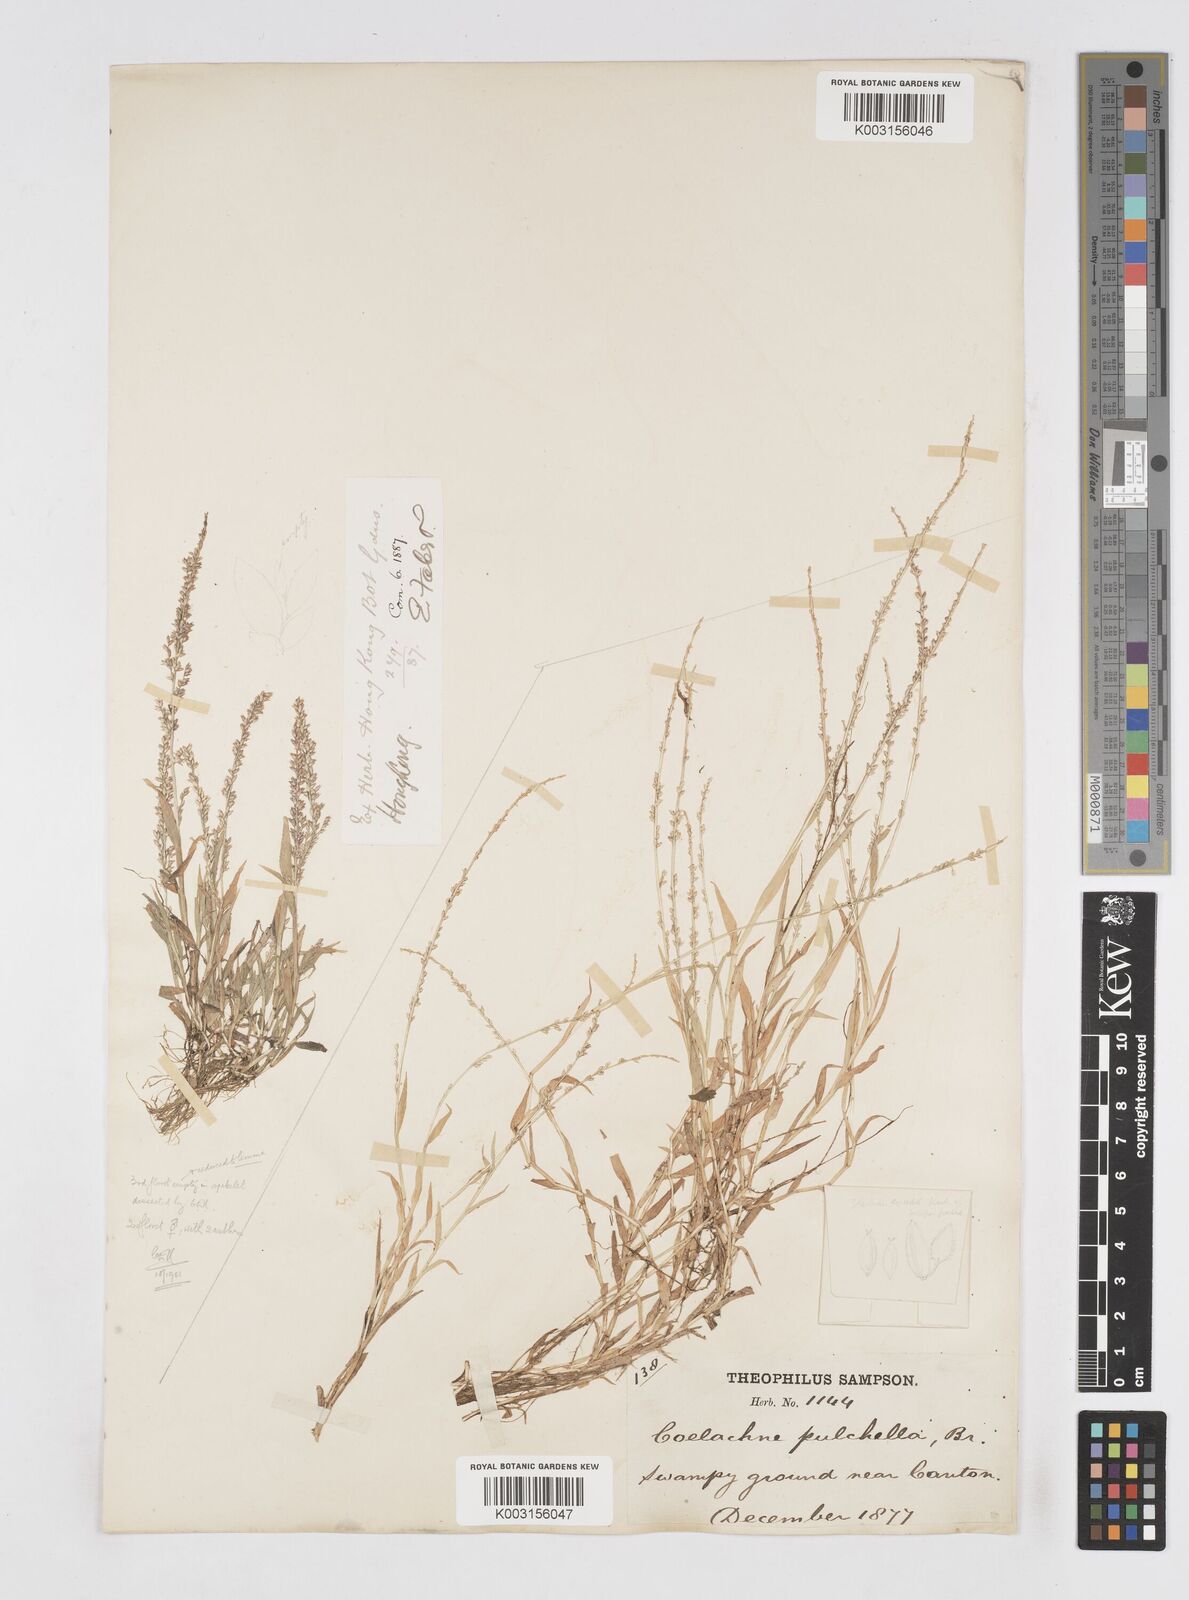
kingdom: Plantae
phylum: Tracheophyta
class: Liliopsida
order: Poales
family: Poaceae
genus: Coelachne
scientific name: Coelachne infirma
